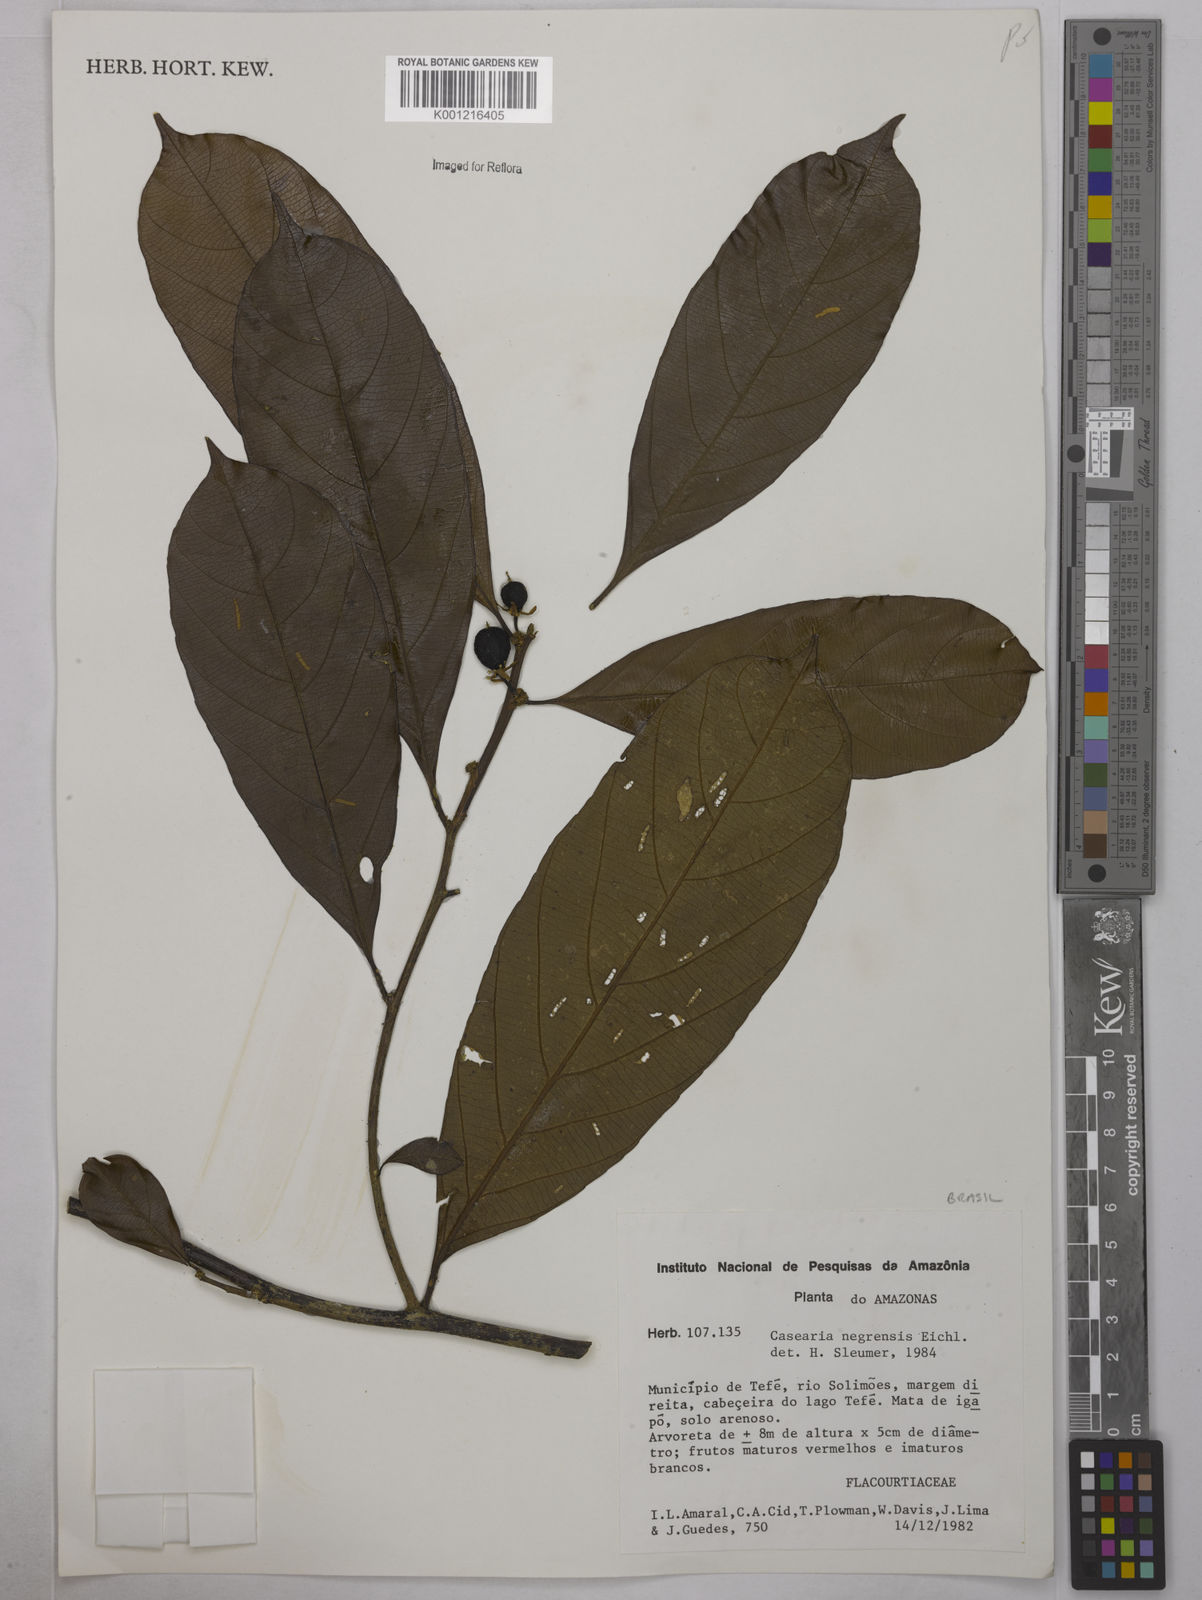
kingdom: Plantae
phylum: Tracheophyta
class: Magnoliopsida
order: Malpighiales
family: Salicaceae
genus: Casearia
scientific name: Casearia negrensis
